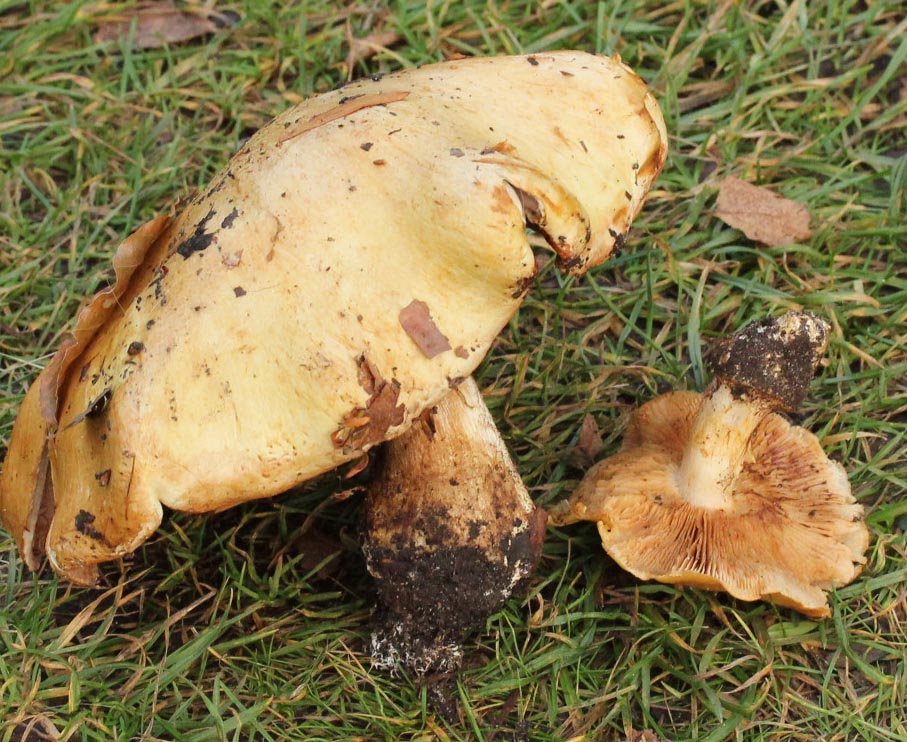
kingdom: Fungi
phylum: Basidiomycota
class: Agaricomycetes
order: Agaricales
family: Cortinariaceae
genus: Cortinarius
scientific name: Cortinarius anserinus
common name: bøge-slørhat
